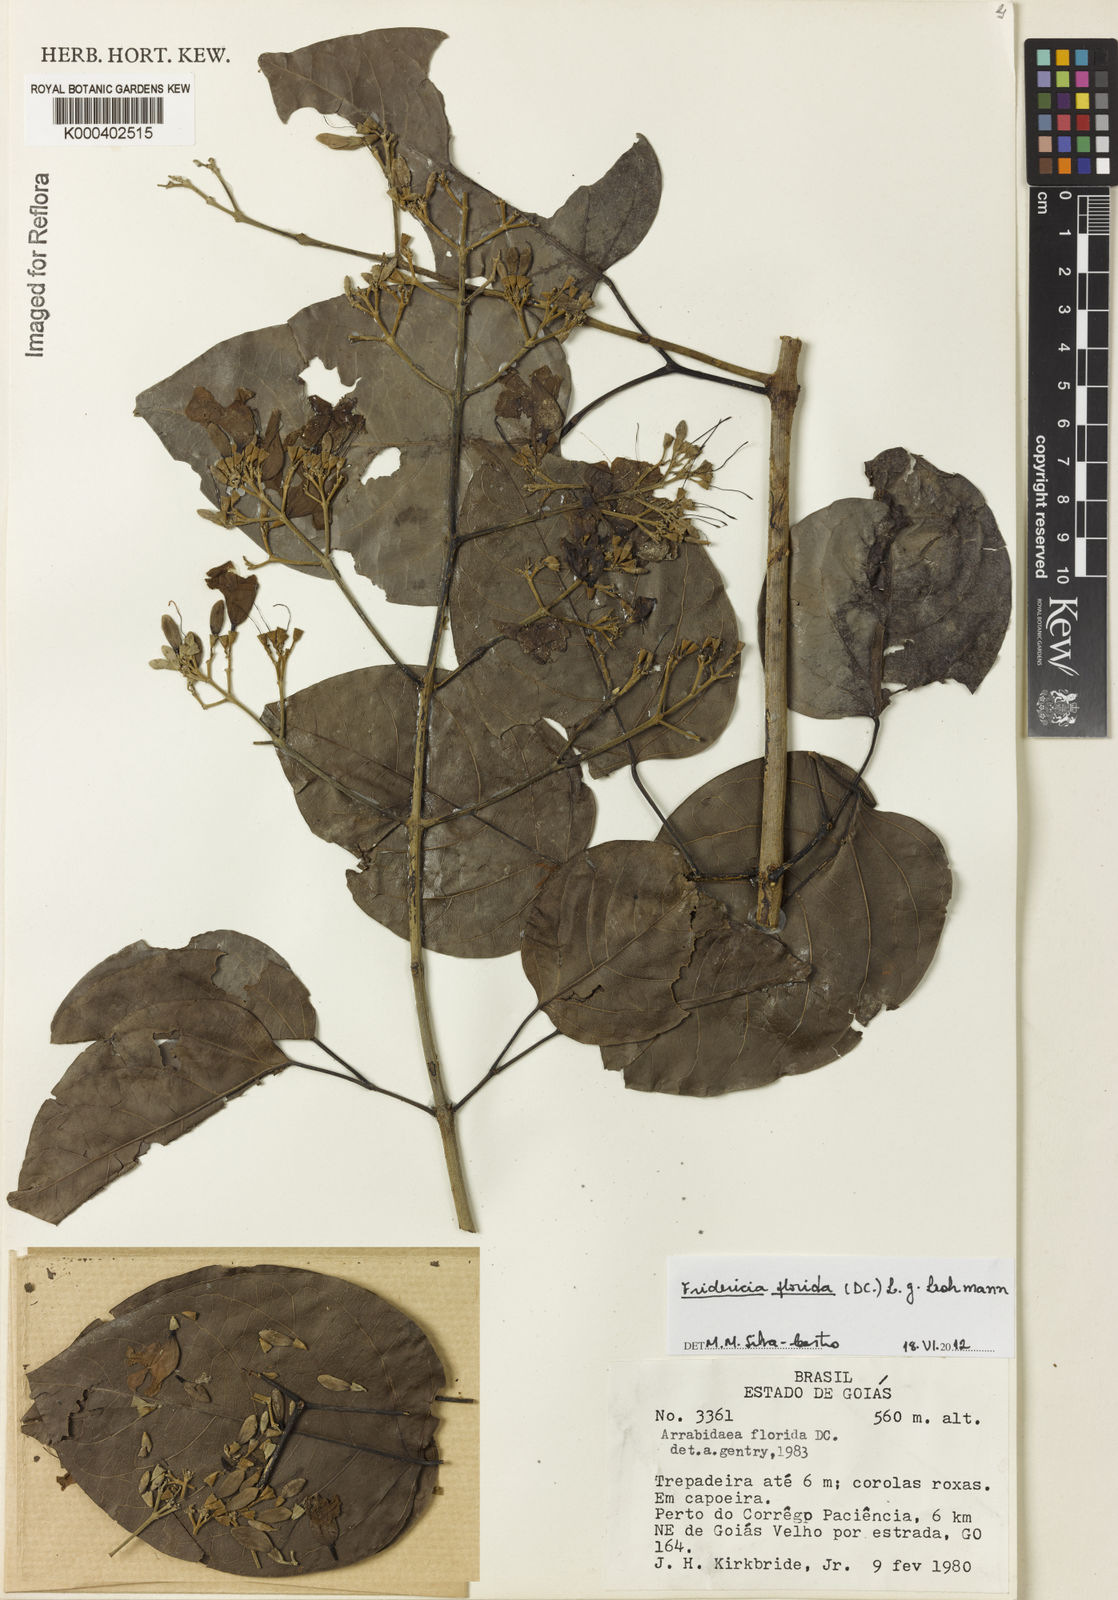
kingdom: Plantae
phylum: Tracheophyta
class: Magnoliopsida
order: Lamiales
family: Bignoniaceae
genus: Fridericia
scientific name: Fridericia florida
